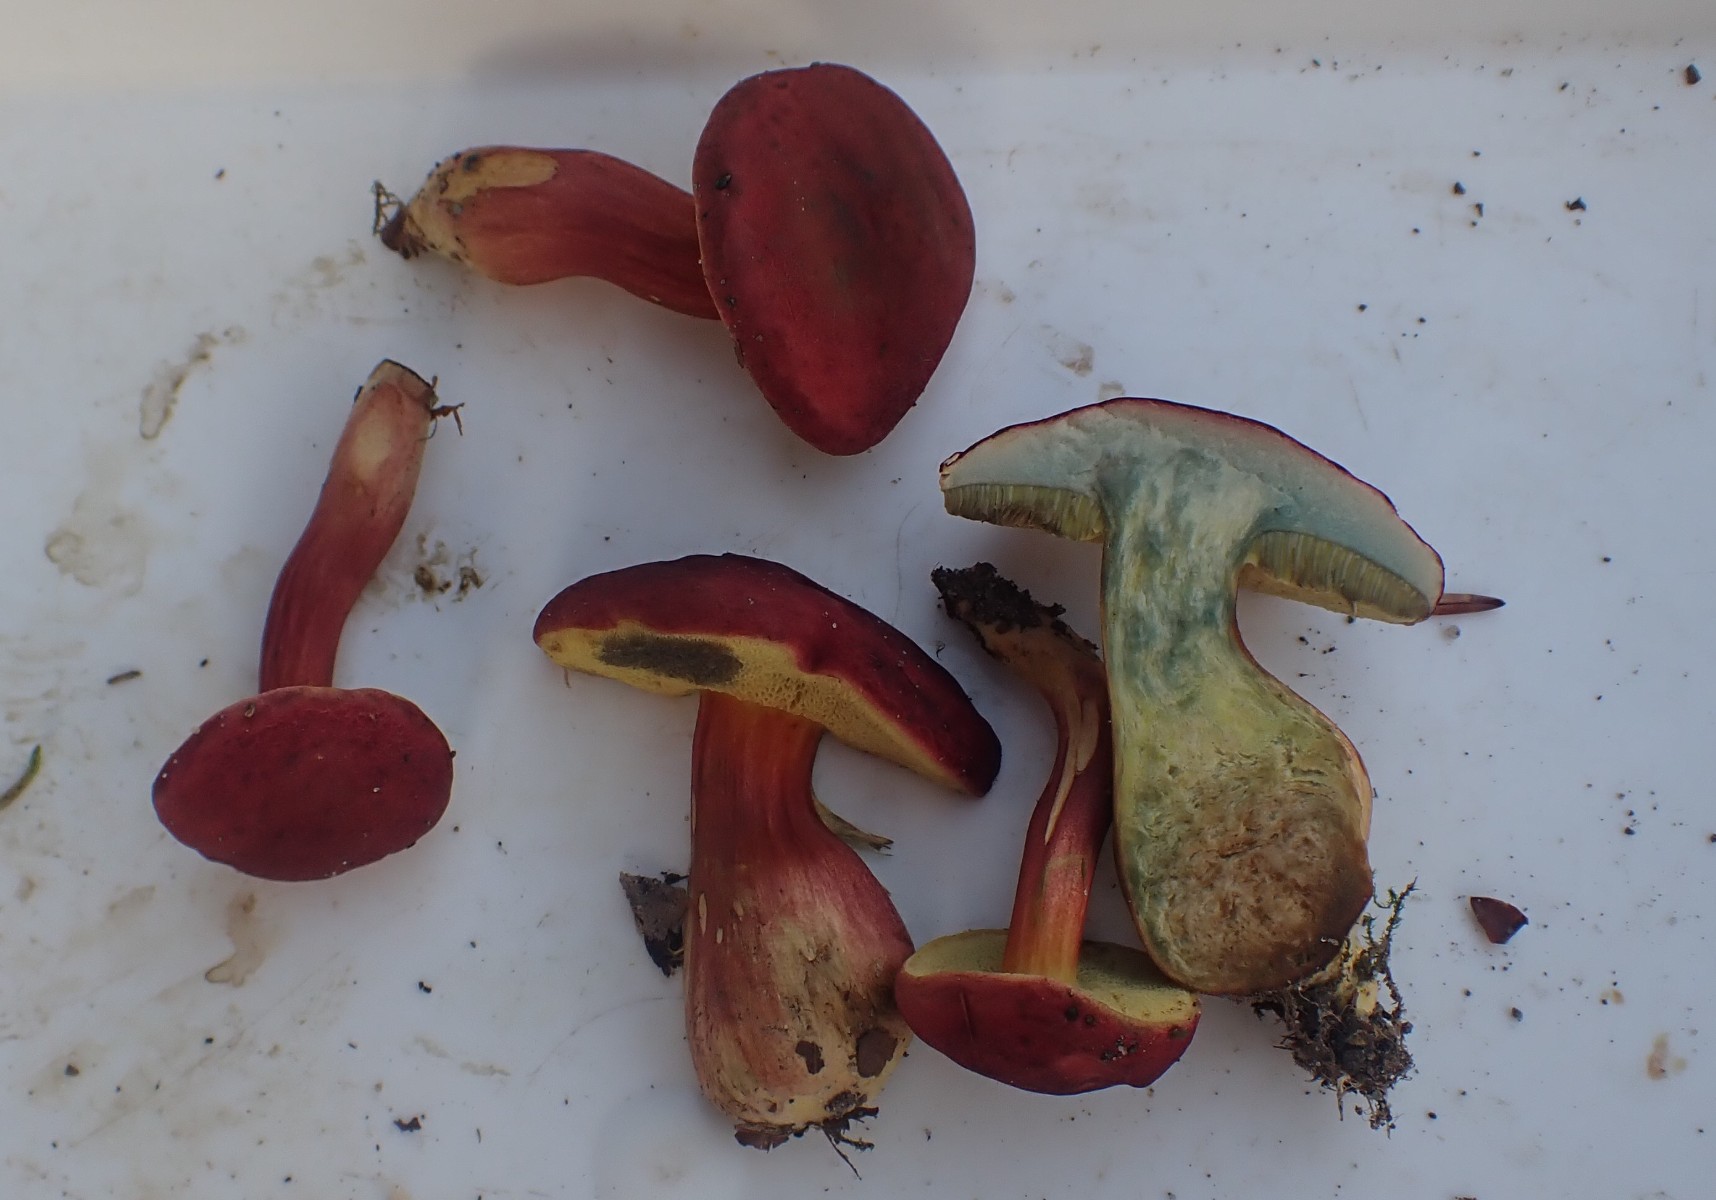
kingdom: Fungi
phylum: Basidiomycota
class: Agaricomycetes
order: Boletales
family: Boletaceae
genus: Hortiboletus
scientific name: Hortiboletus rubellus
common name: blodrød rørhat
